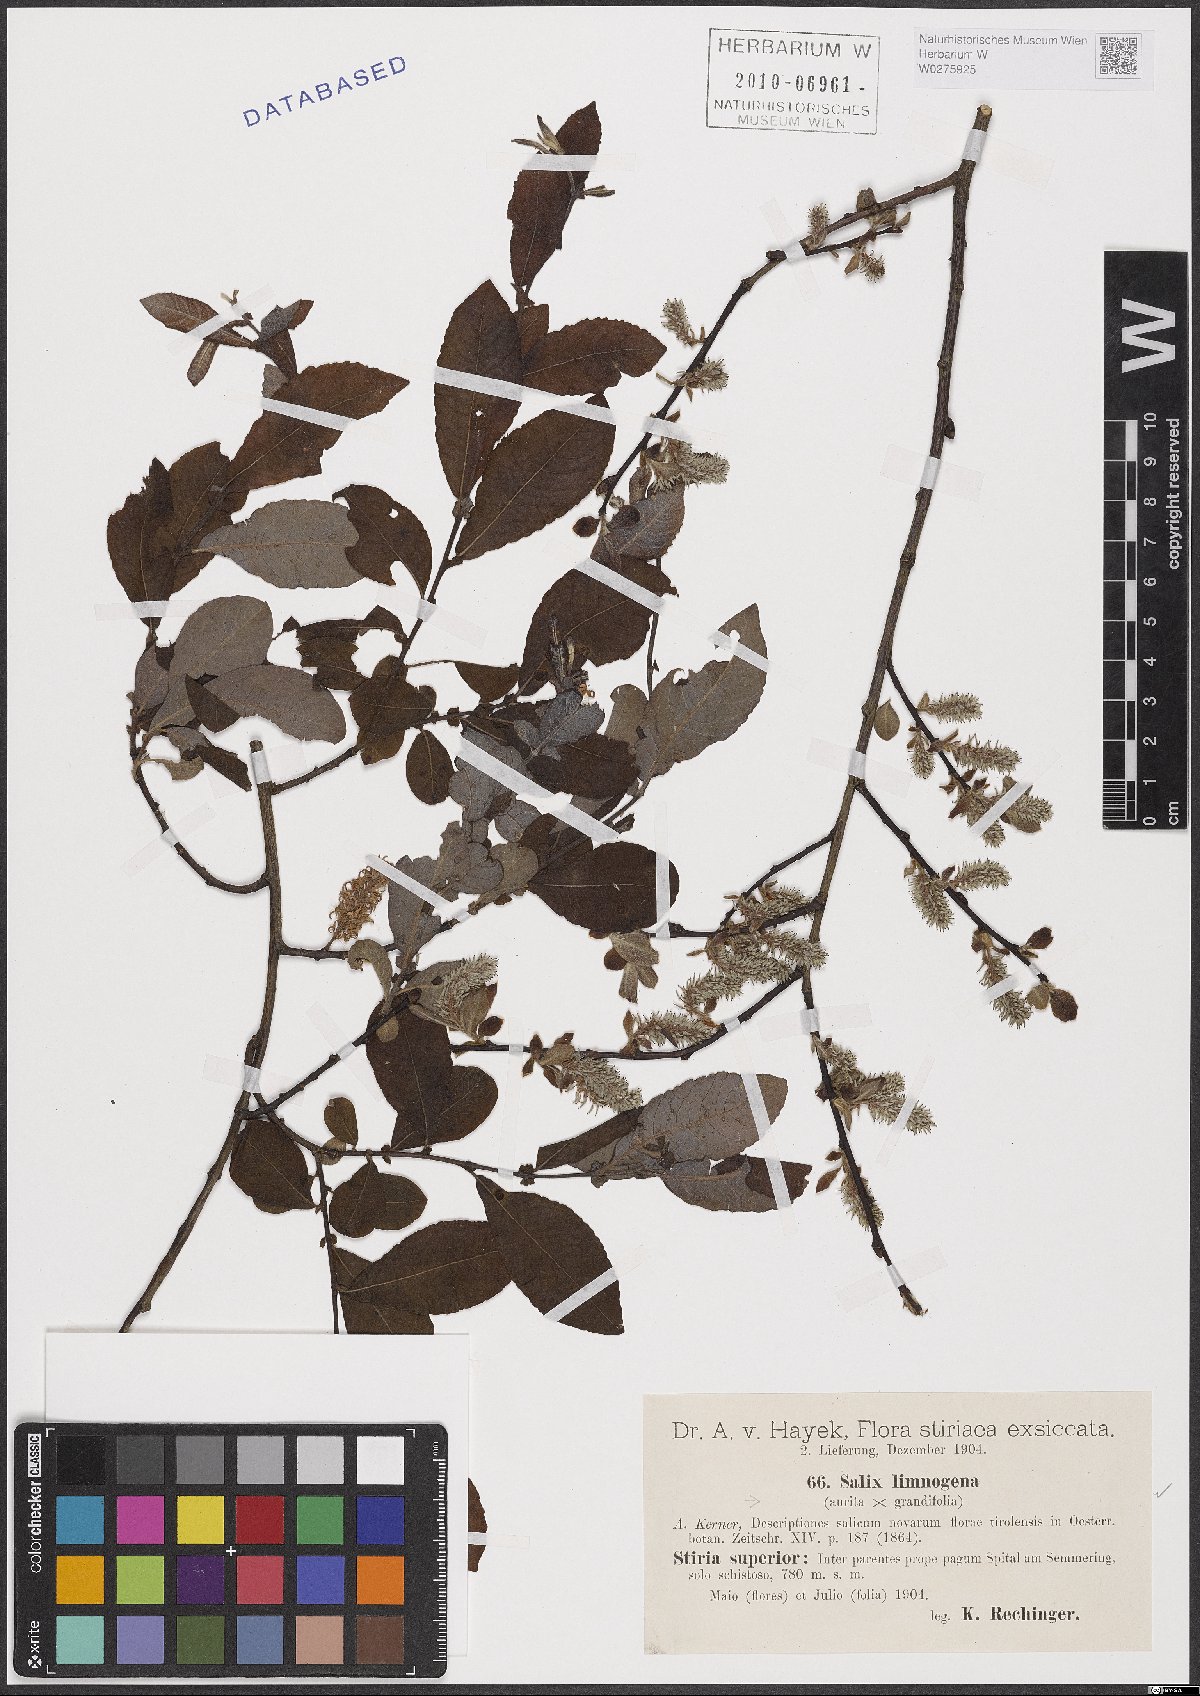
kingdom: Plantae
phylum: Tracheophyta
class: Magnoliopsida
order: Malpighiales
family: Salicaceae
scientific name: Salicaceae
